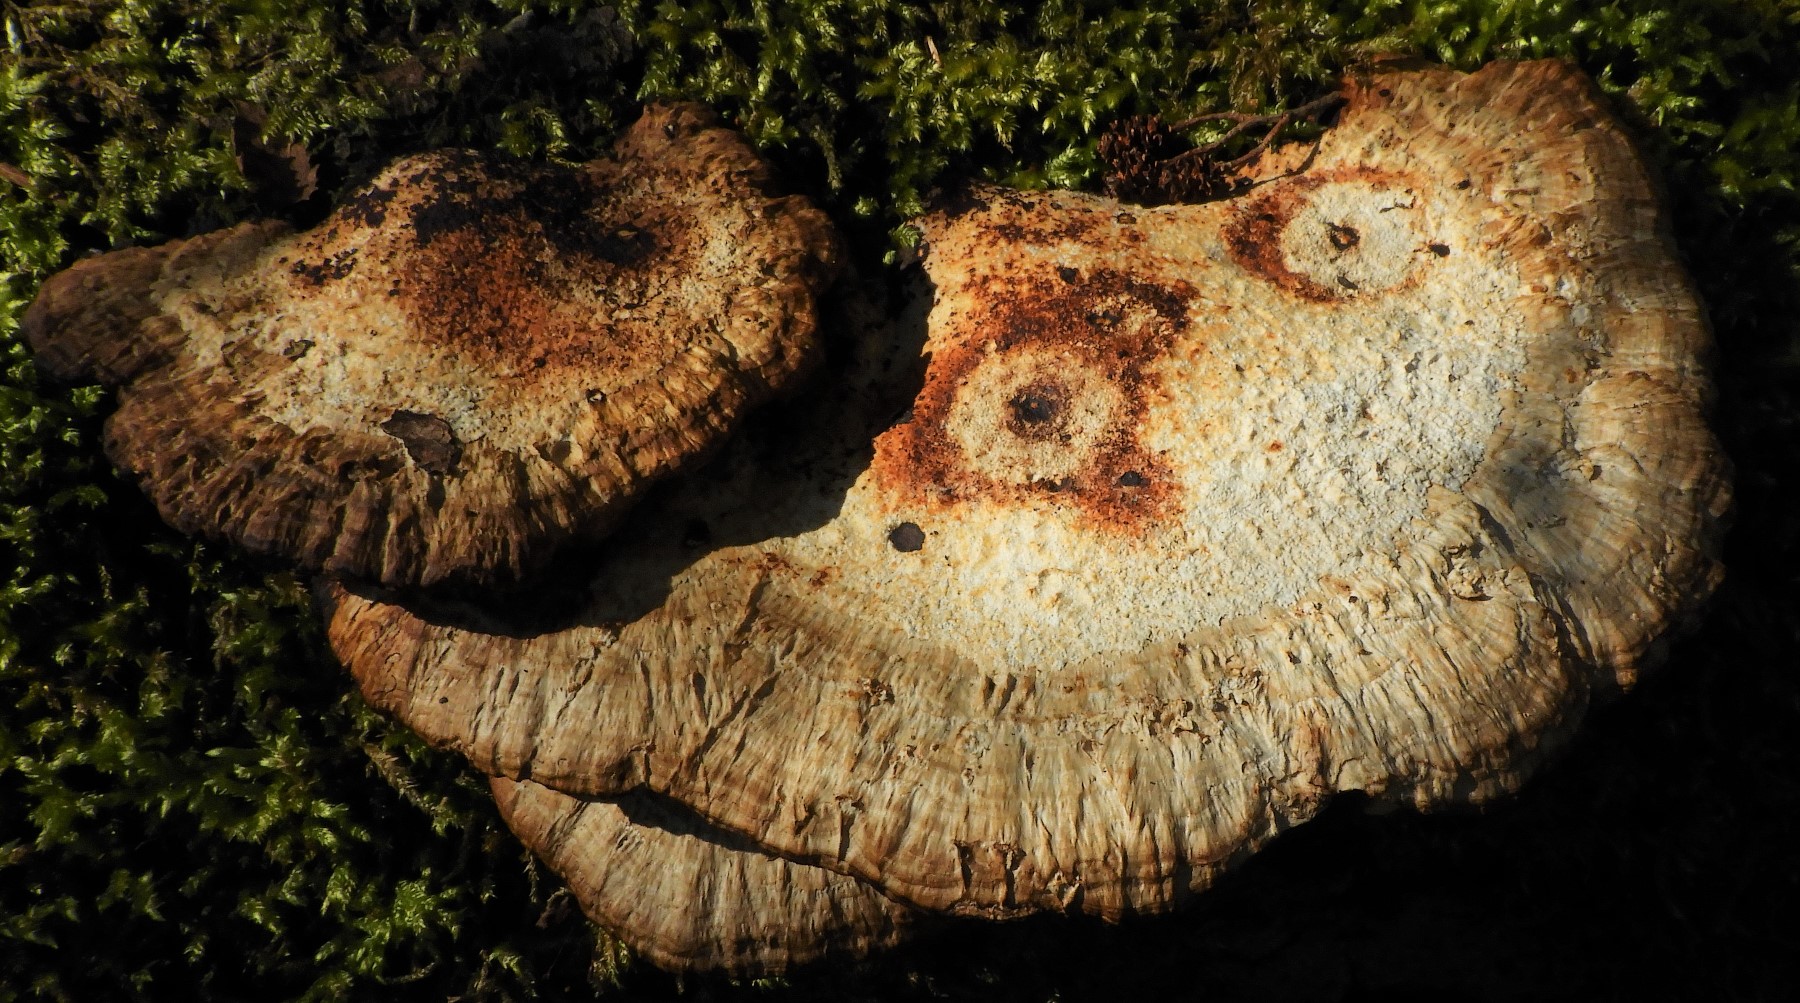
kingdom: Fungi
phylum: Basidiomycota
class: Agaricomycetes
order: Polyporales
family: Polyporaceae
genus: Daedaleopsis
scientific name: Daedaleopsis confragosa
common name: rødmende læderporesvamp
